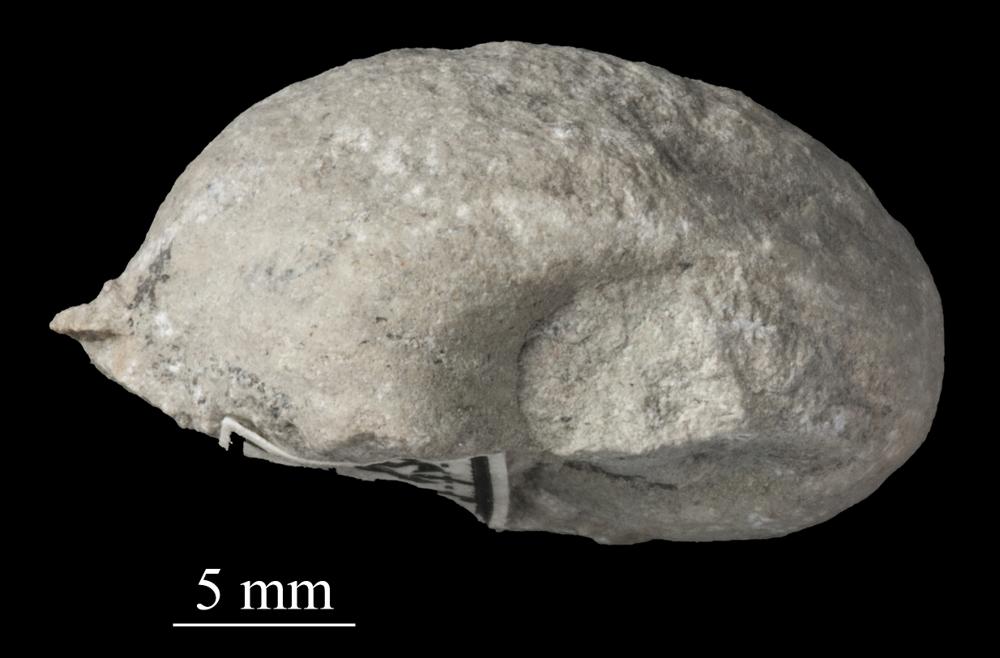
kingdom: Animalia
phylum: Mollusca
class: Gastropoda
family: Bellerophontidae
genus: Bellerophon
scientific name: Bellerophon
